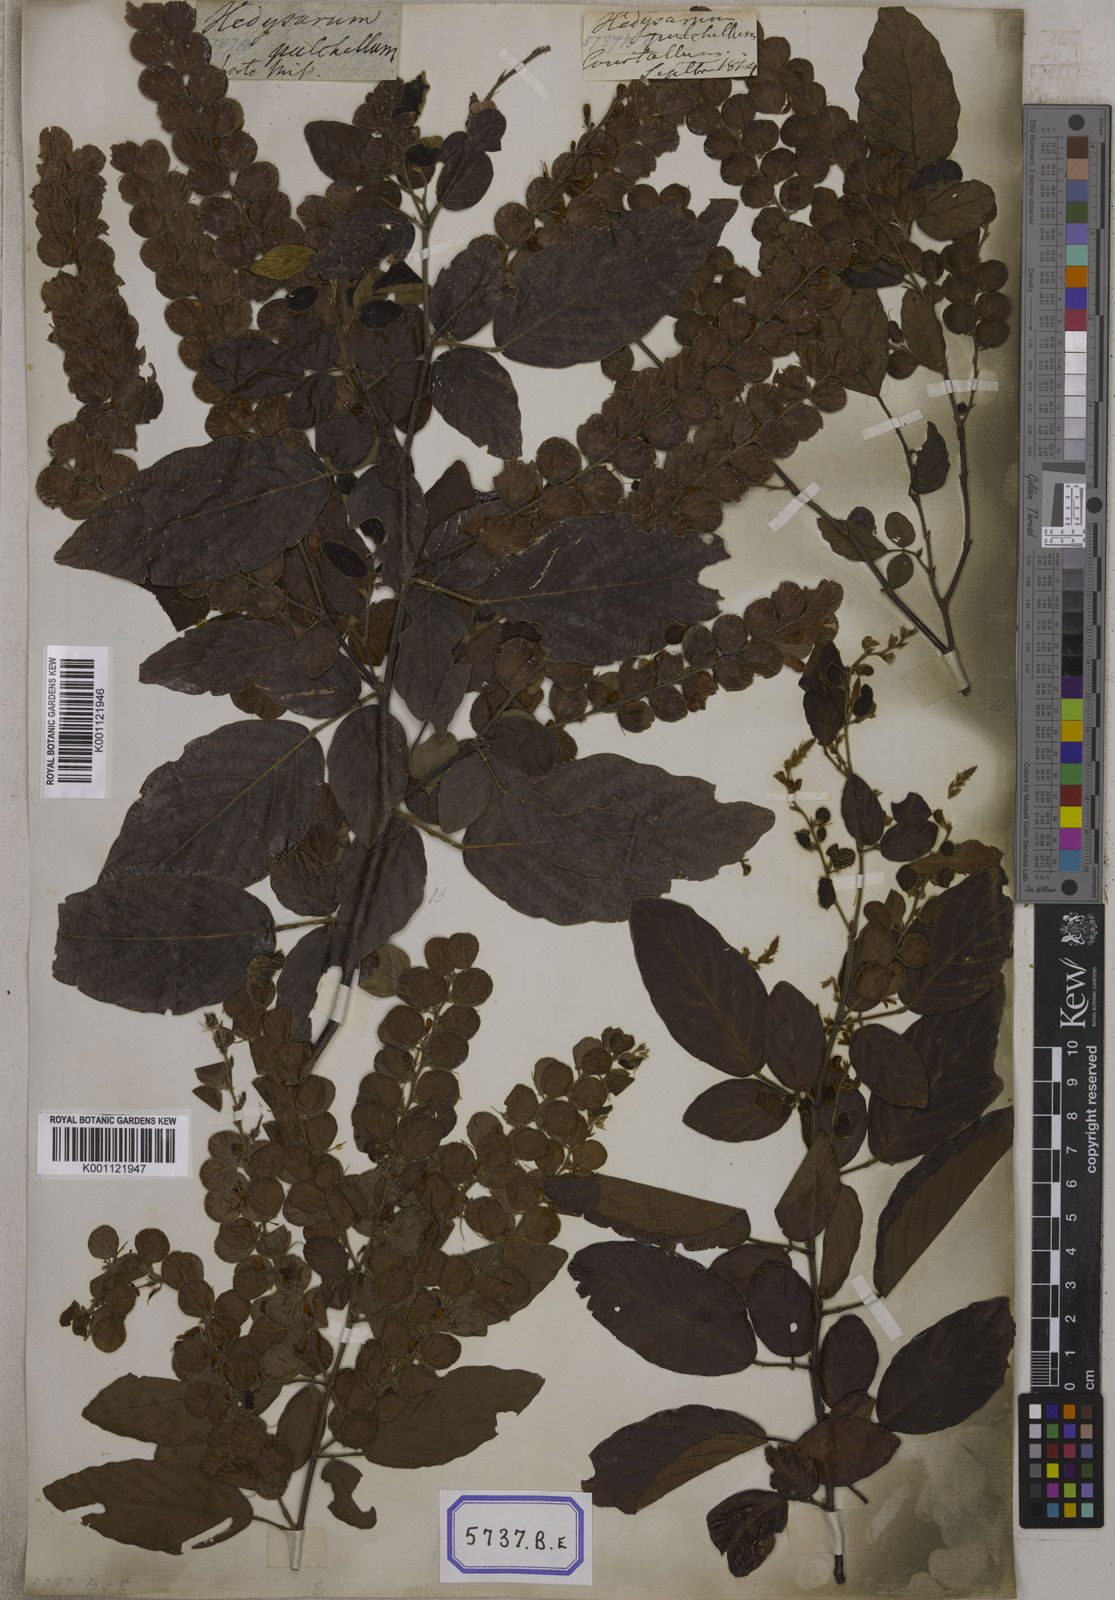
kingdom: Plantae
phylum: Tracheophyta
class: Magnoliopsida
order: Fabales
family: Fabaceae
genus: Phyllodium
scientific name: Phyllodium pulchellum
